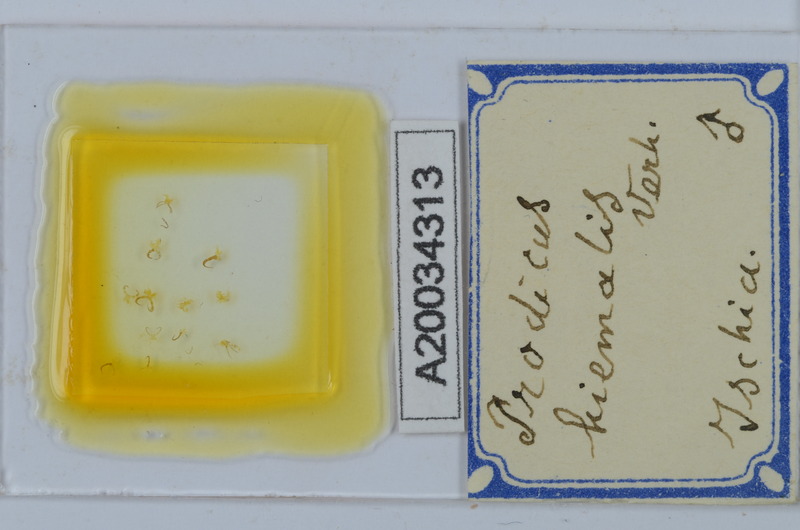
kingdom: Animalia
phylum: Arthropoda
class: Diplopoda
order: Chordeumatida
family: Anthroleucosomatidae
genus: Anamastigona
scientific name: Anamastigona hispidula
